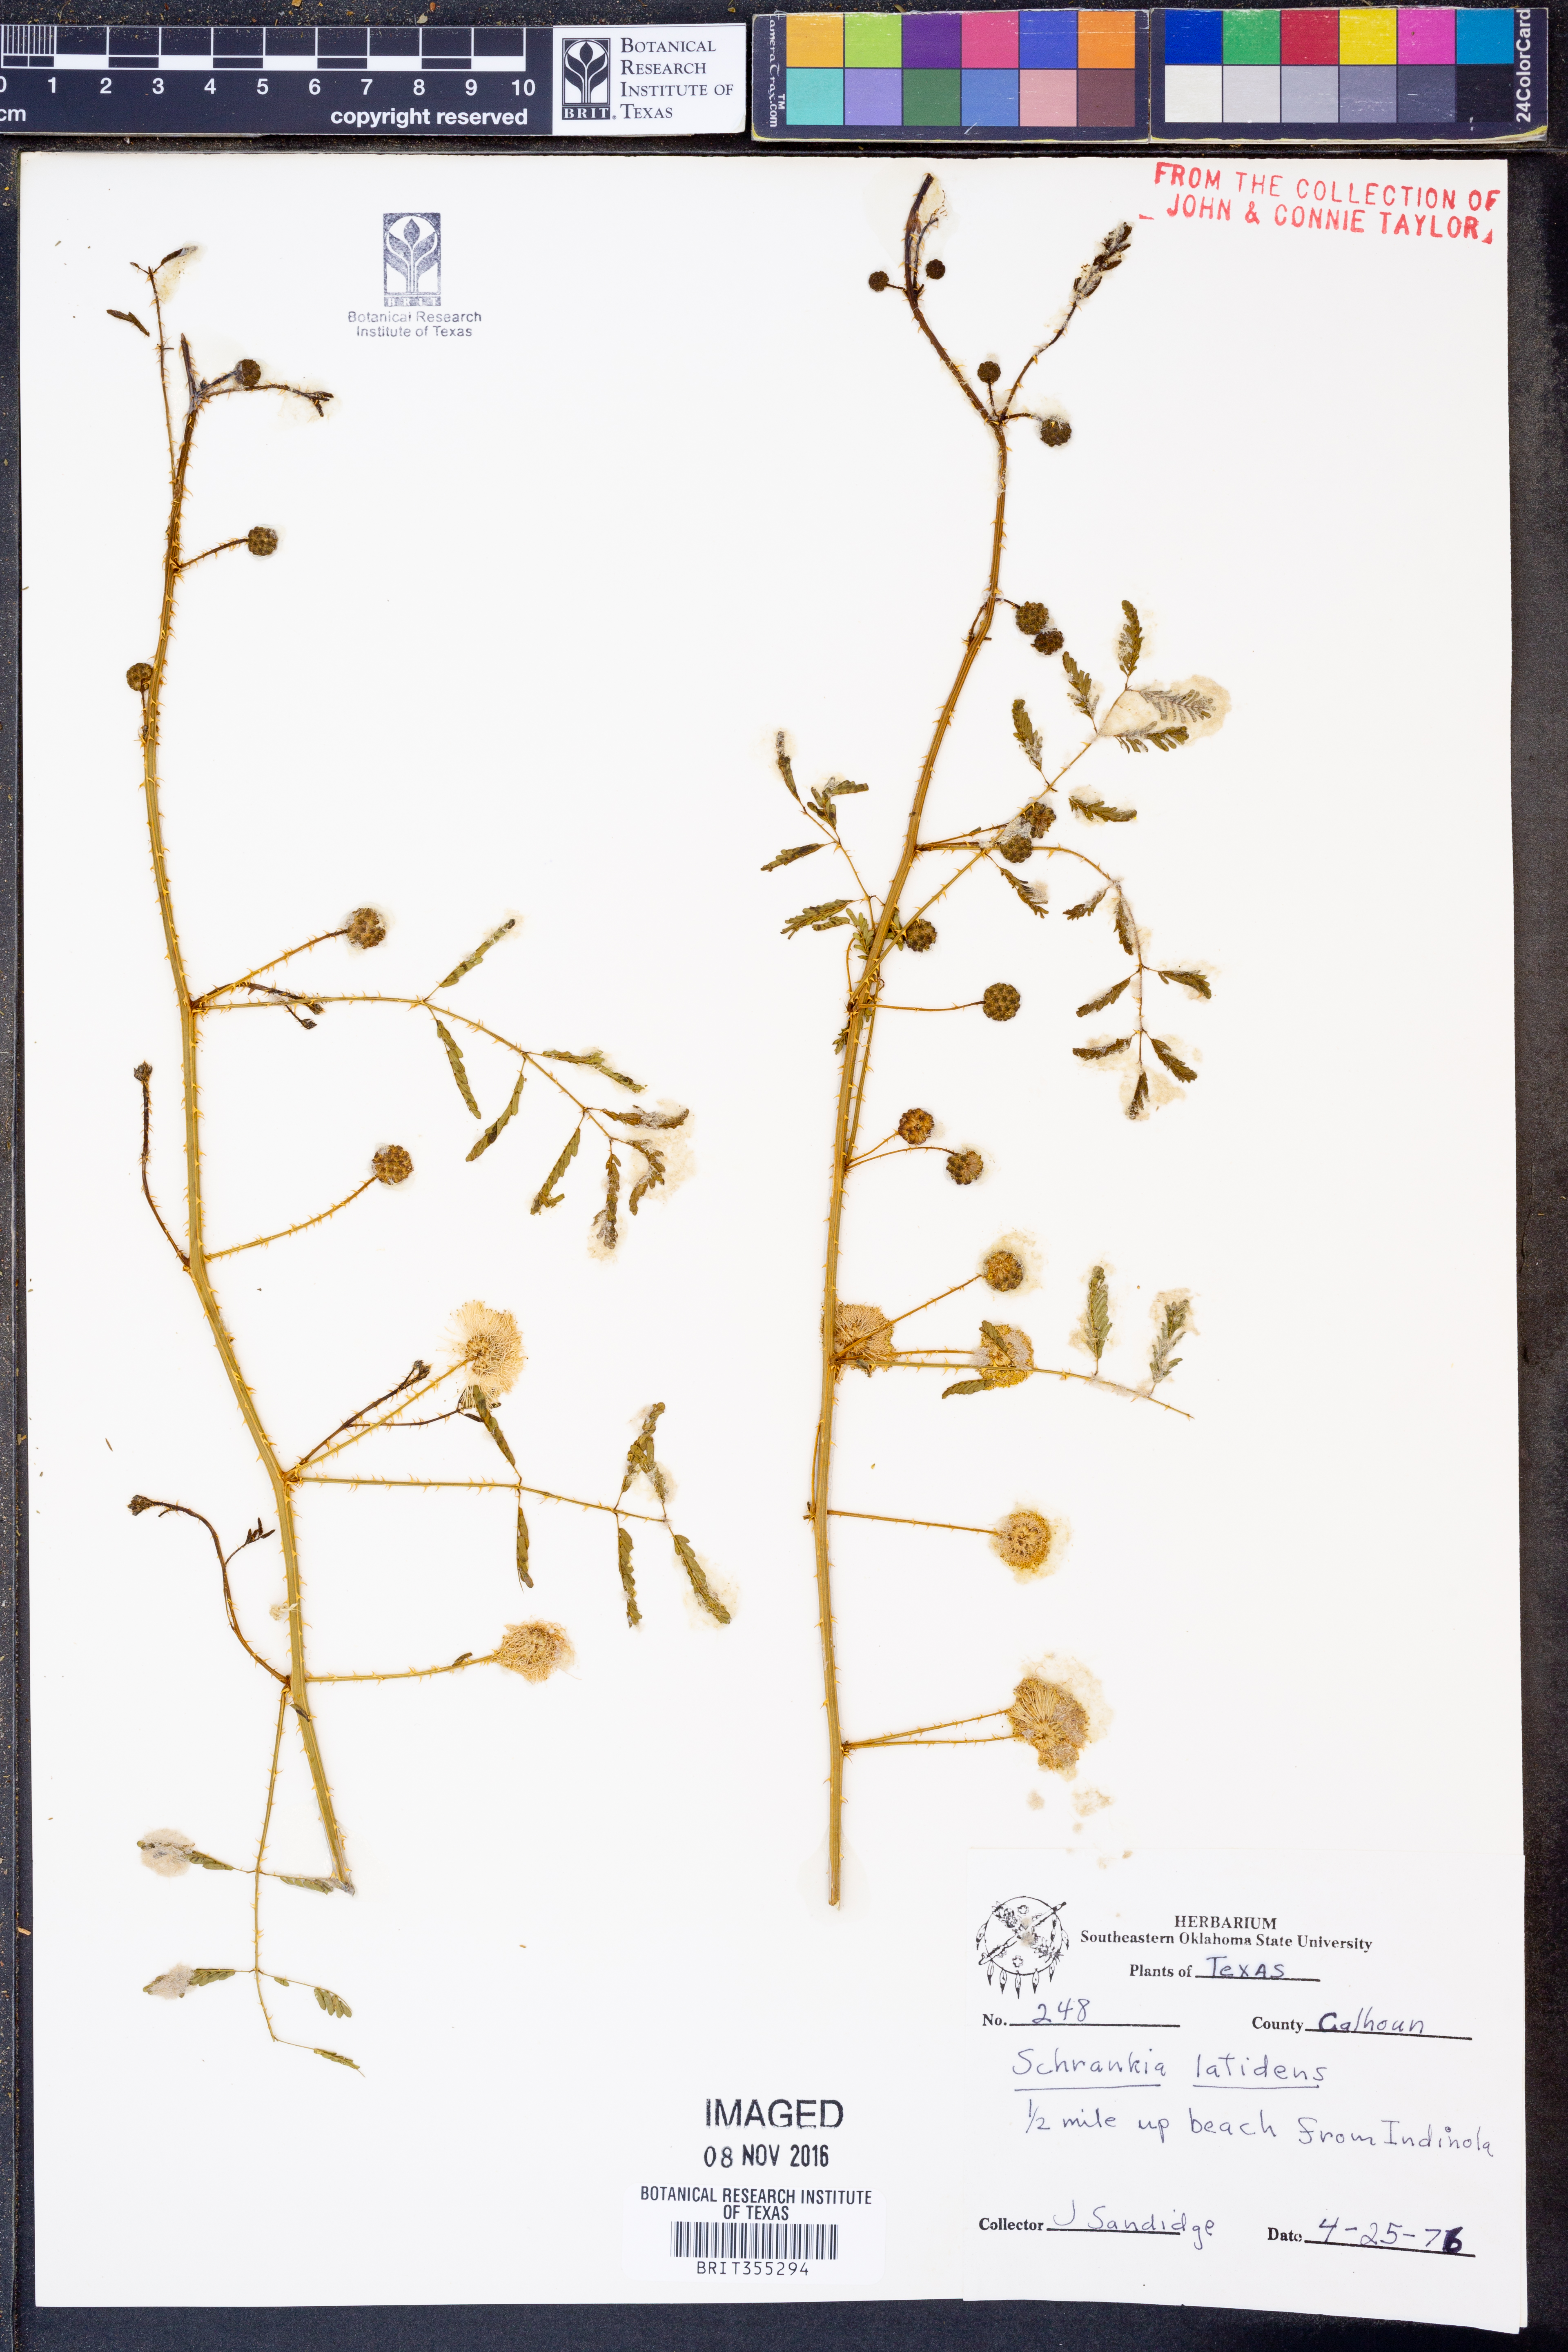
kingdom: Plantae
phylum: Tracheophyta
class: Magnoliopsida
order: Fabales
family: Fabaceae
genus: Mimosa
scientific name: Mimosa quadrivalvis
